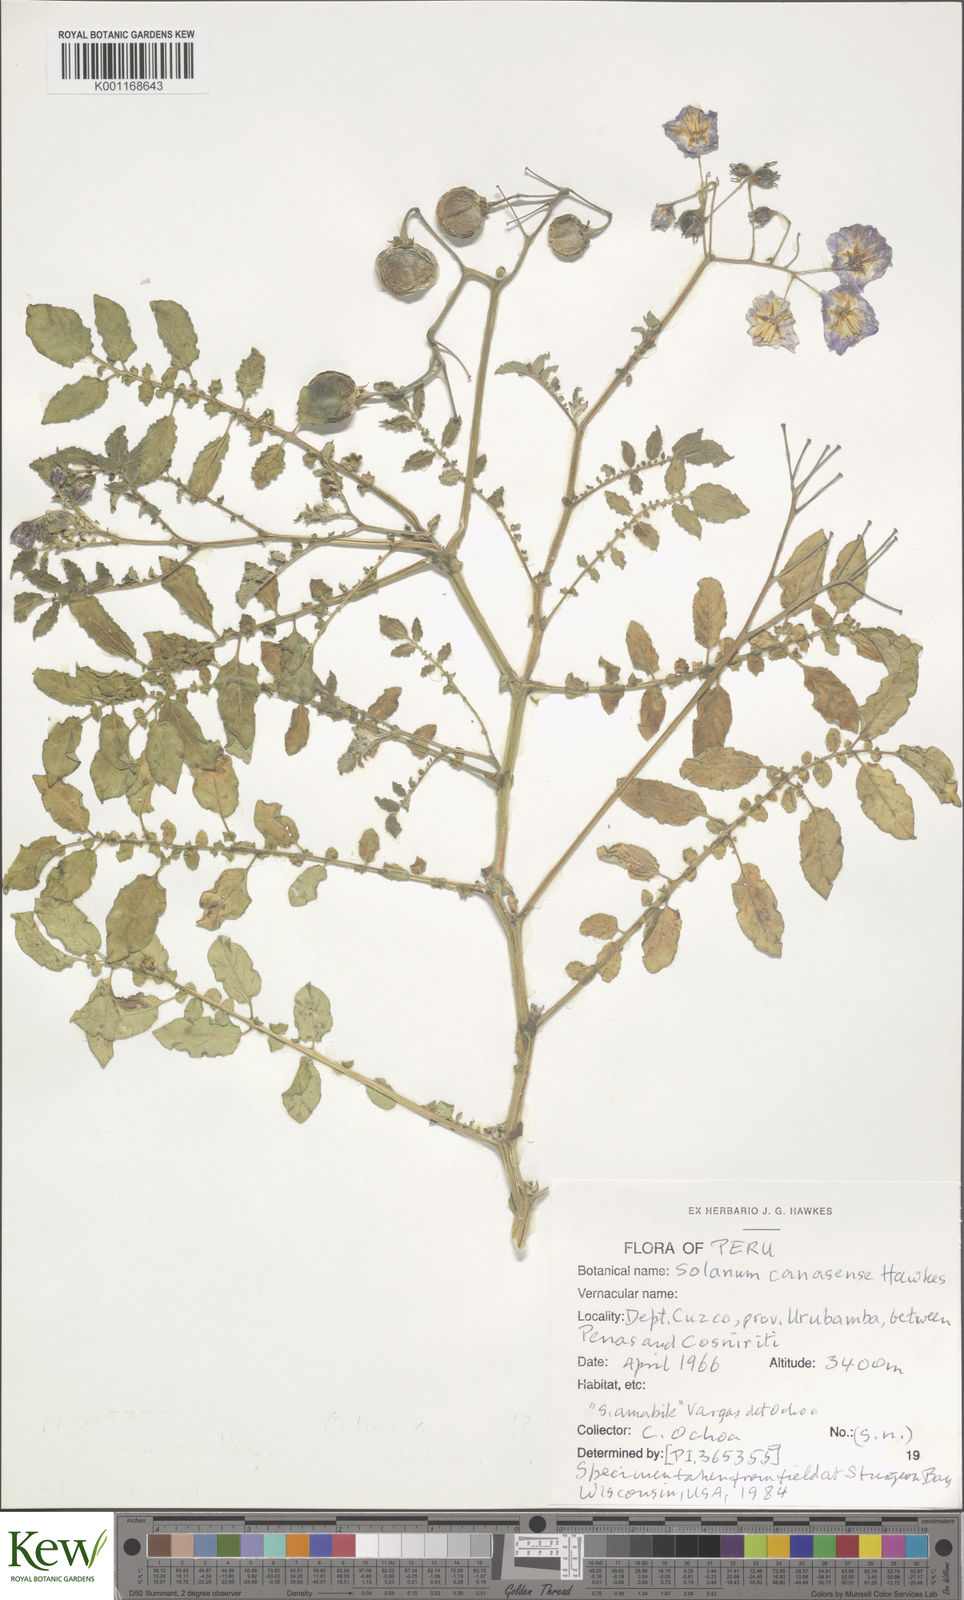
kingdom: Plantae
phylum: Tracheophyta
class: Magnoliopsida
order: Solanales
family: Solanaceae
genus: Solanum
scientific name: Solanum candolleanum
